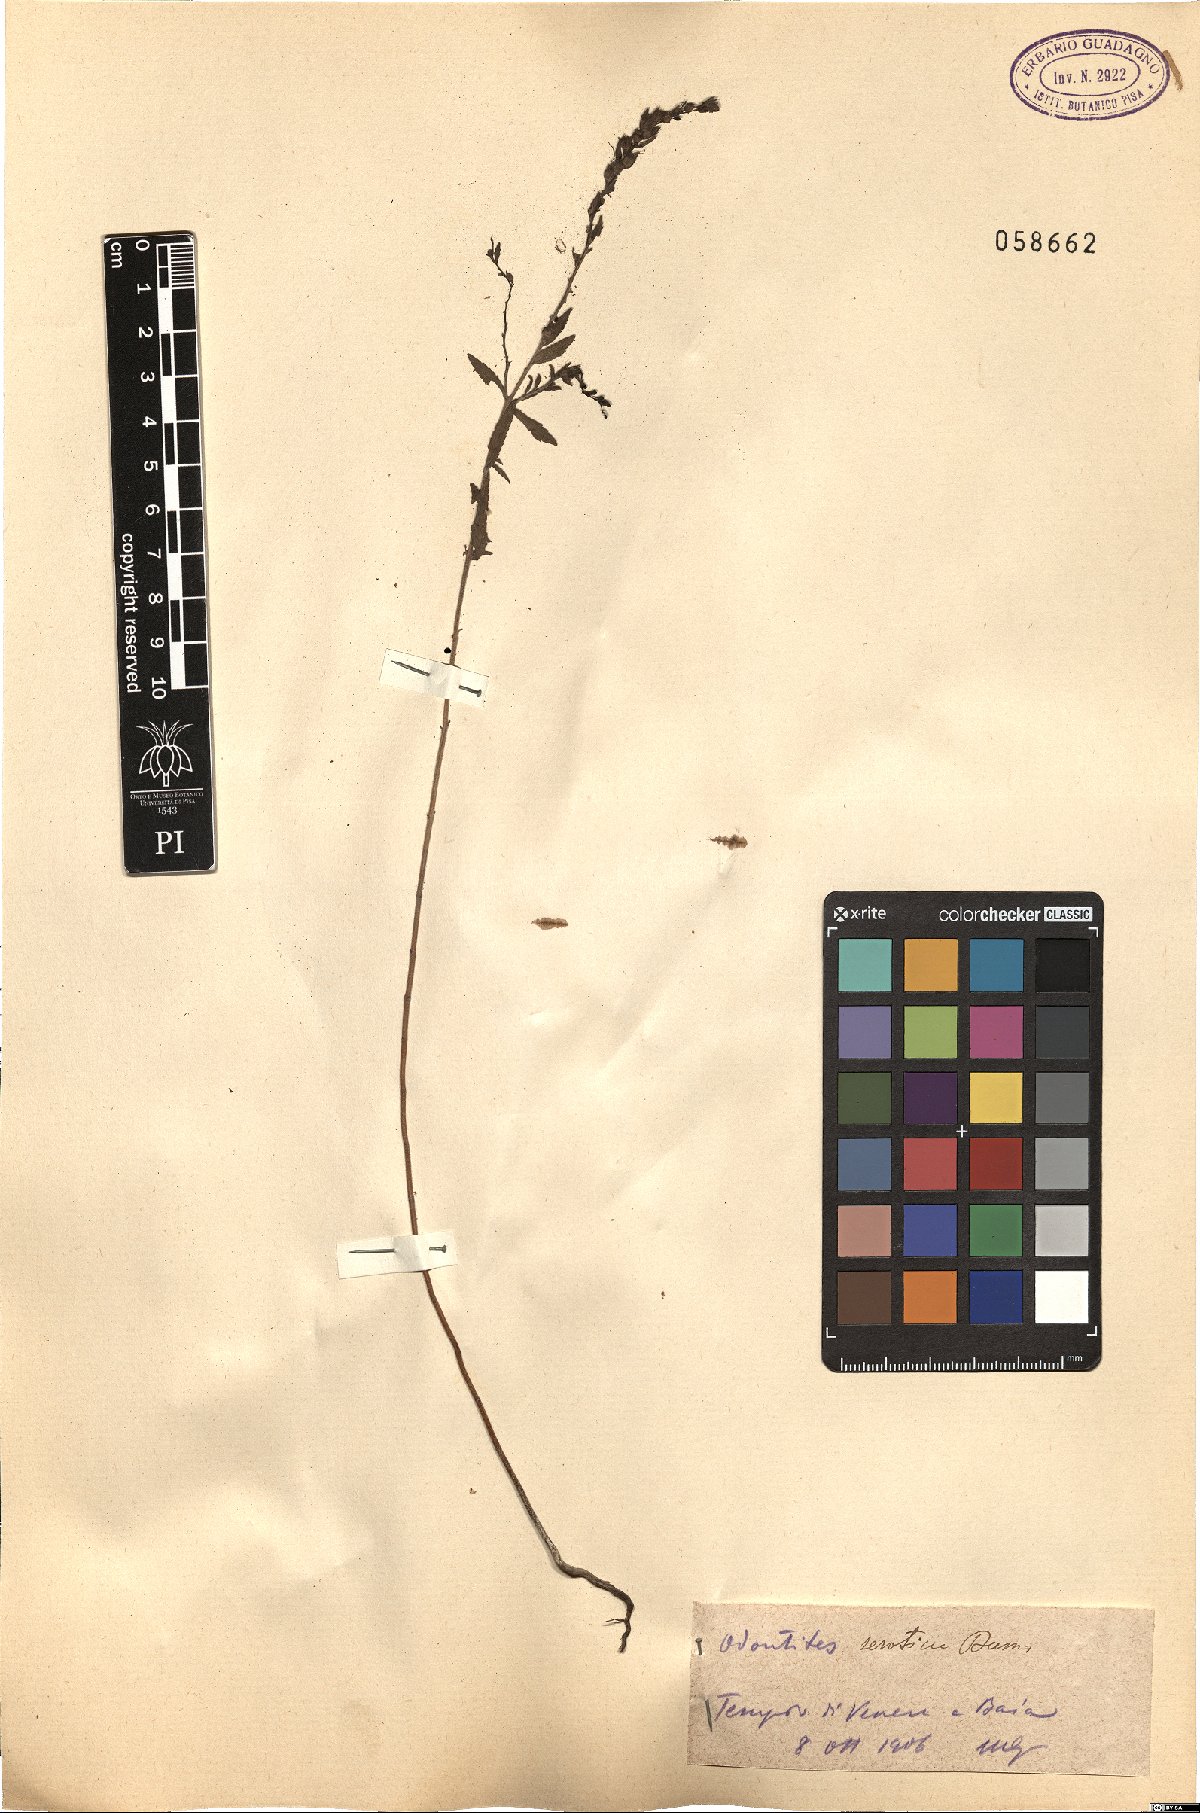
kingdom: Plantae
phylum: Tracheophyta
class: Magnoliopsida
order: Lamiales
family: Orobanchaceae
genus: Odontites
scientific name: Odontites vulgaris
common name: Broomrape
